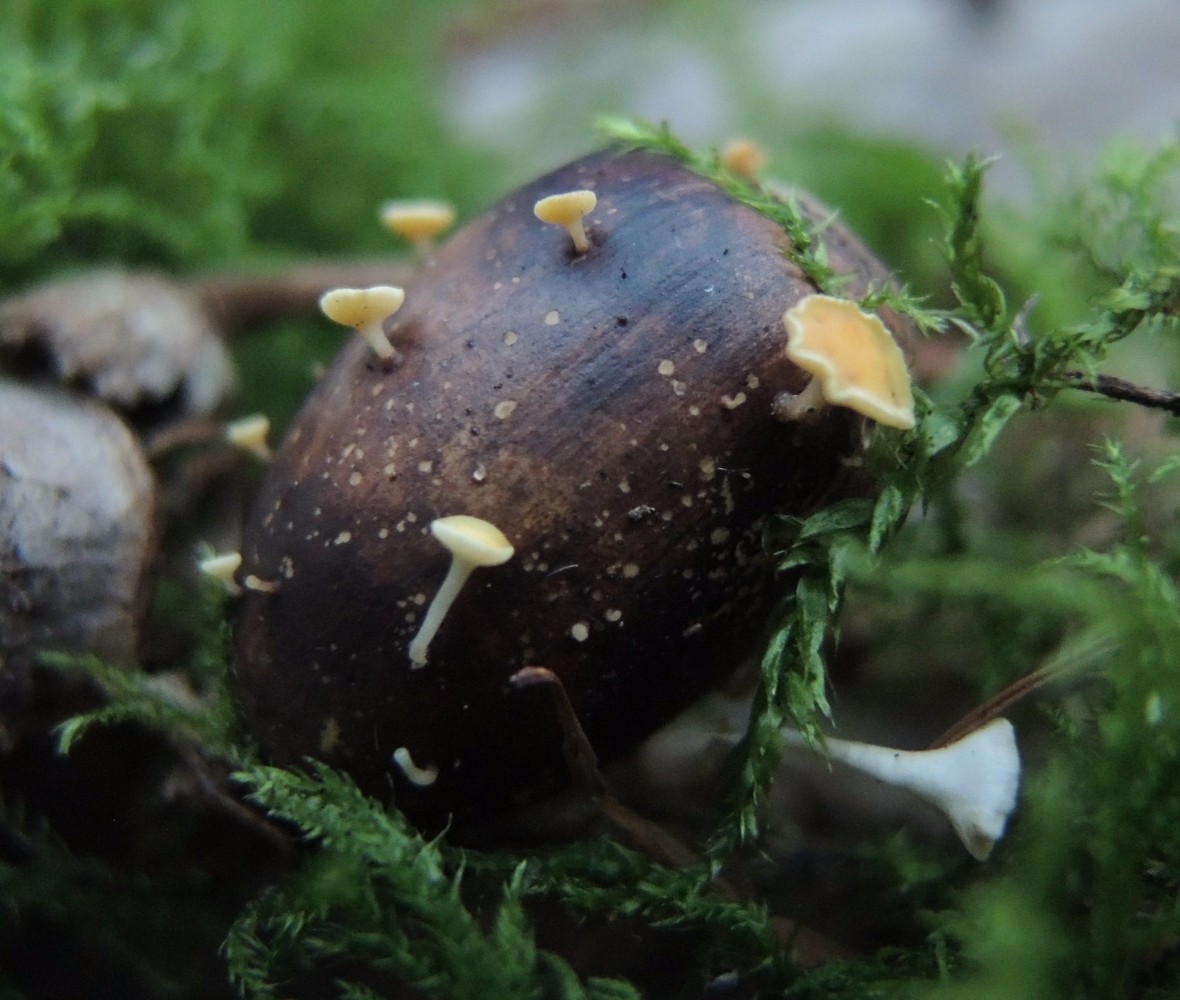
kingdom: Fungi
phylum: Ascomycota
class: Leotiomycetes
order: Helotiales
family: Helotiaceae
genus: Hymenoscyphus
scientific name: Hymenoscyphus fructigenus
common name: frugt-stilkskive
